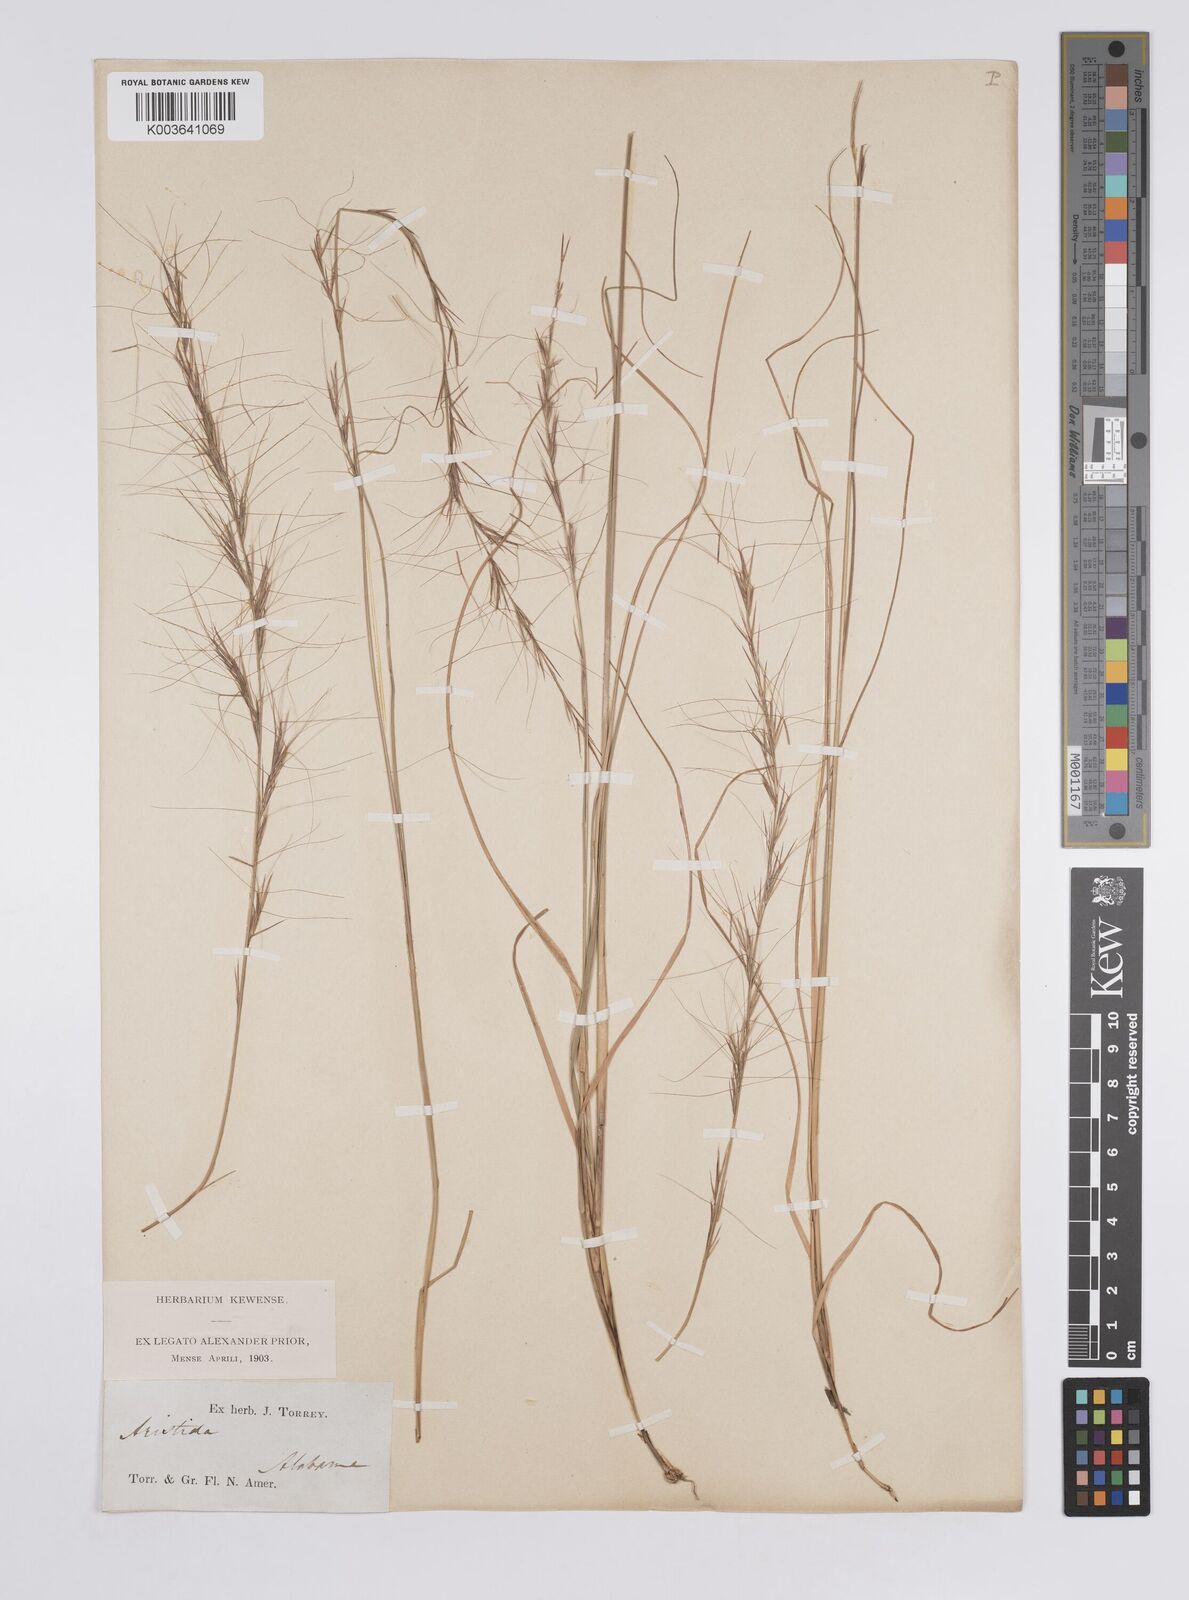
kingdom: Plantae
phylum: Tracheophyta
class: Liliopsida
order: Poales
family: Poaceae
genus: Aristida
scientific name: Aristida purpurascens
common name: Arrow-feather
